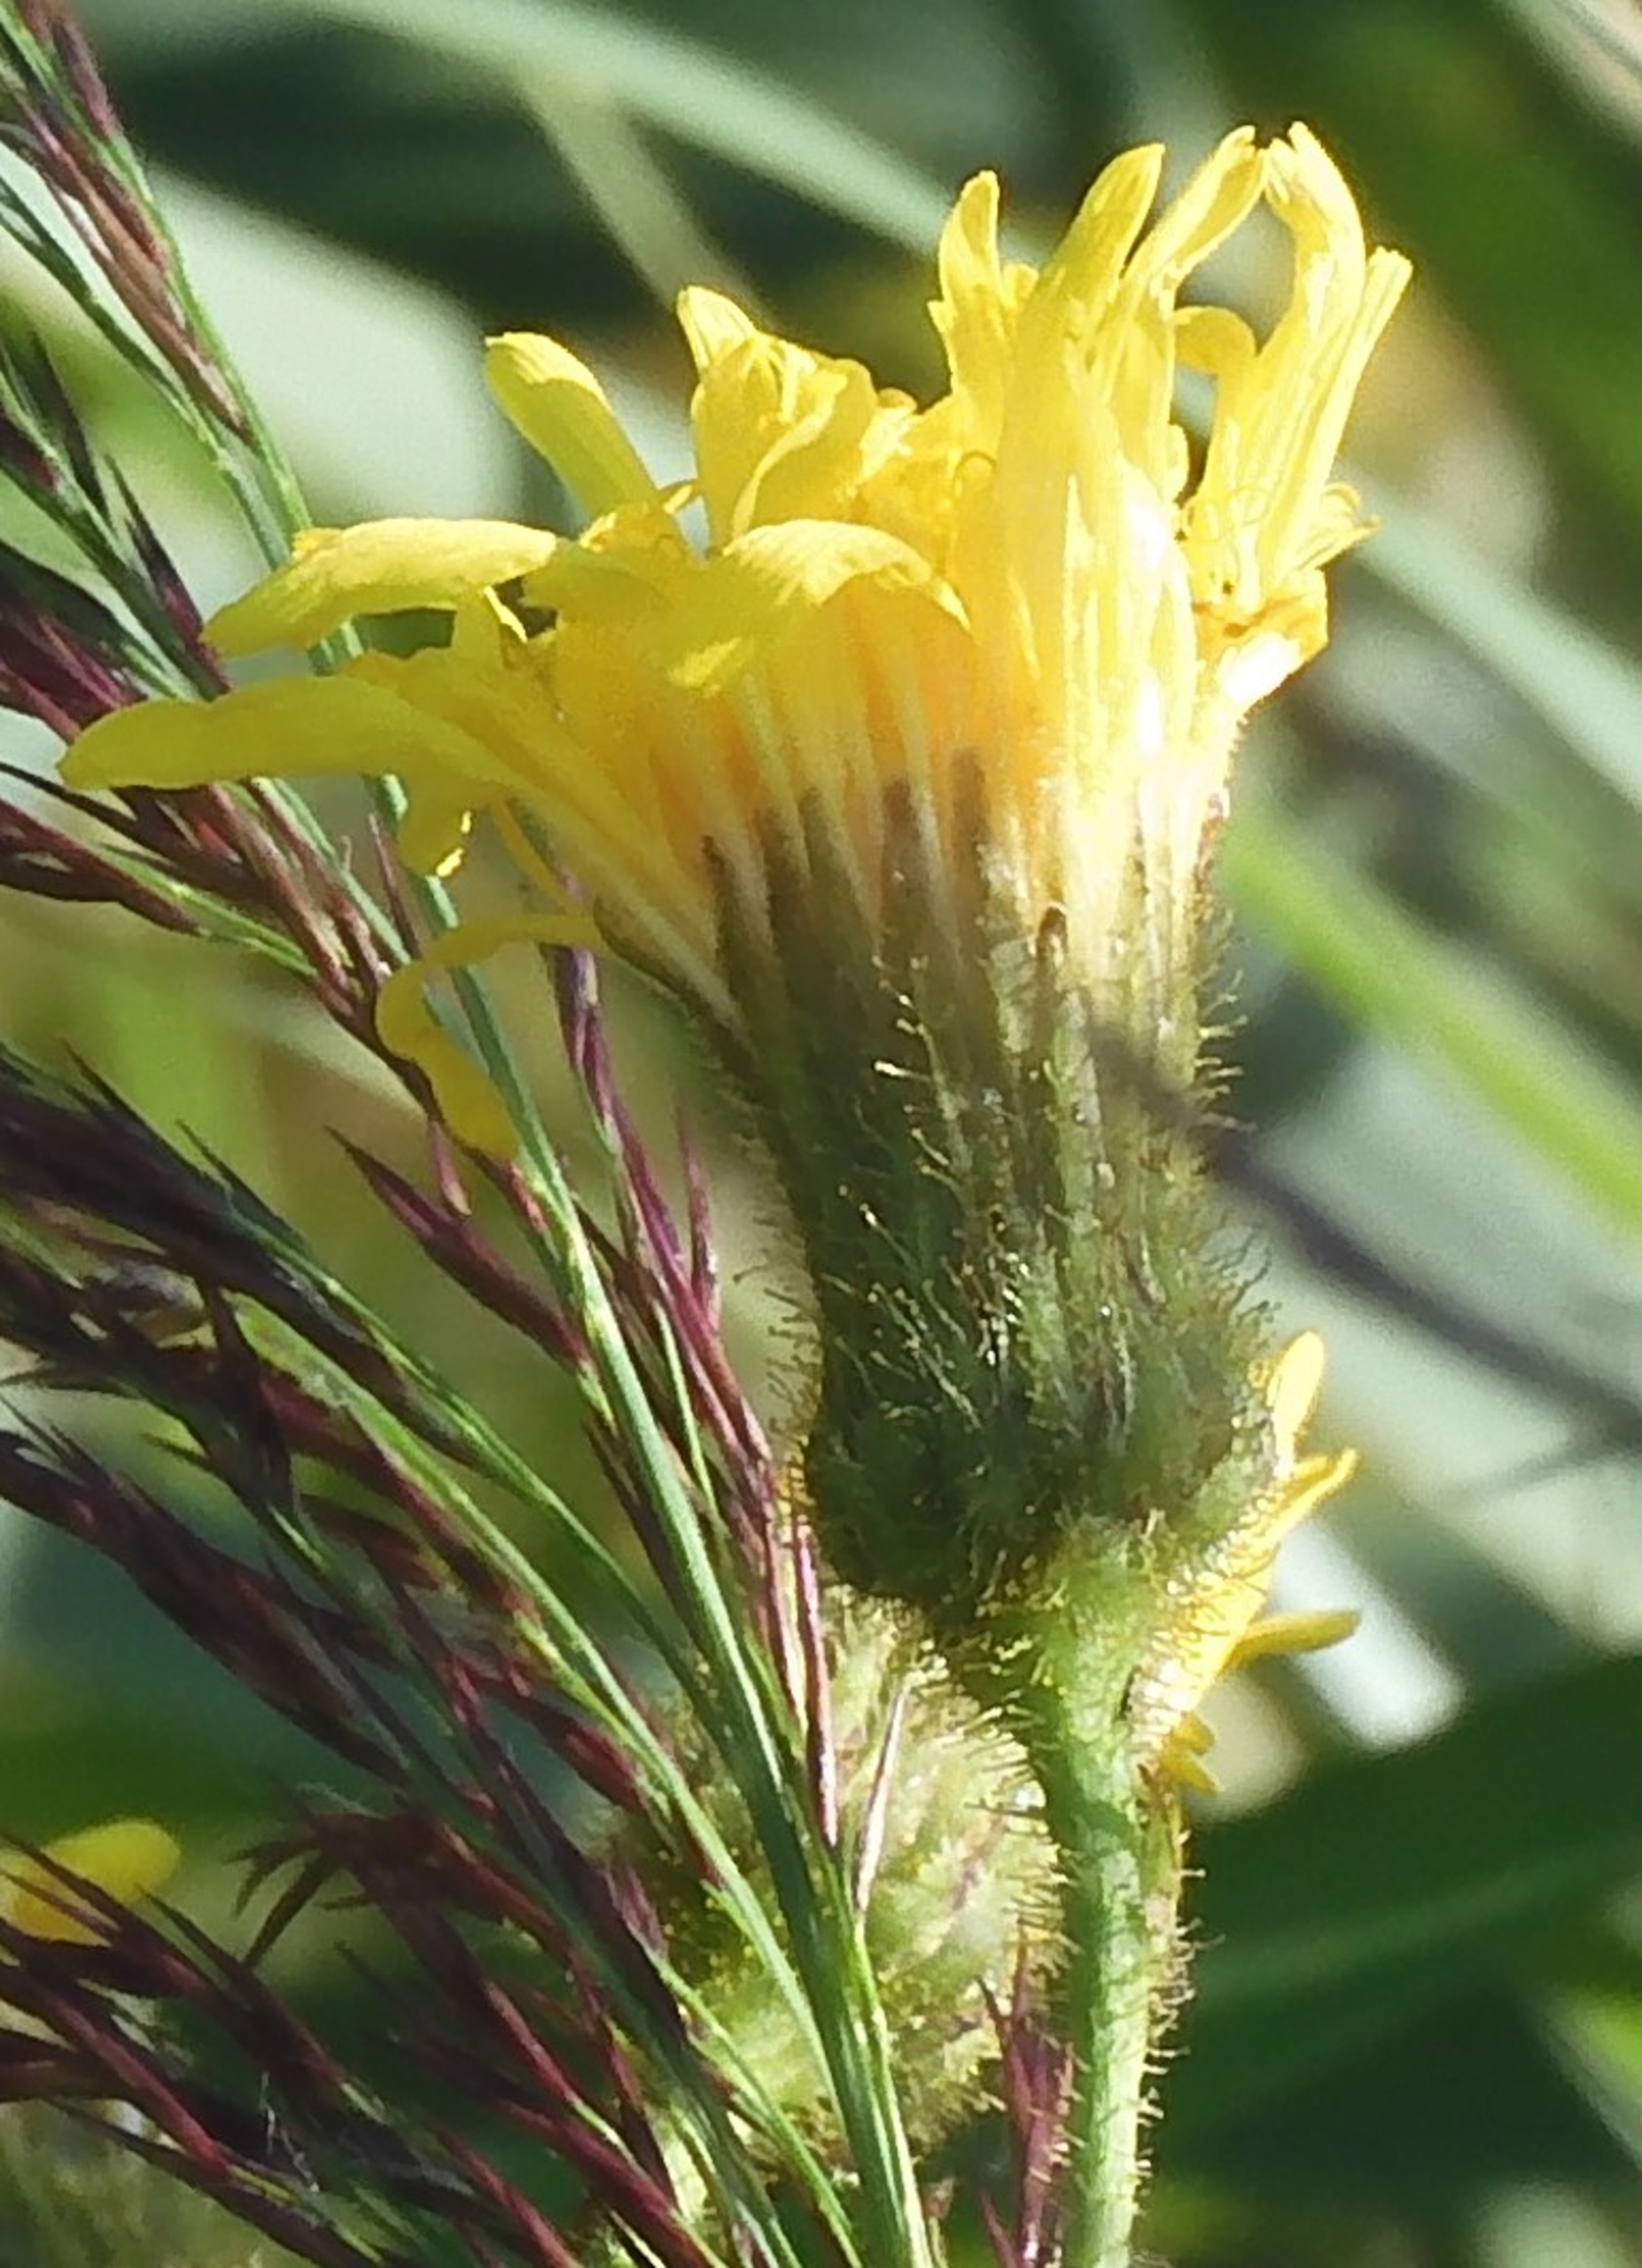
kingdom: Plantae
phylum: Tracheophyta
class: Magnoliopsida
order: Asterales
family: Asteraceae
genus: Sonchus
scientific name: Sonchus arvensis
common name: Ager-svinemælk
